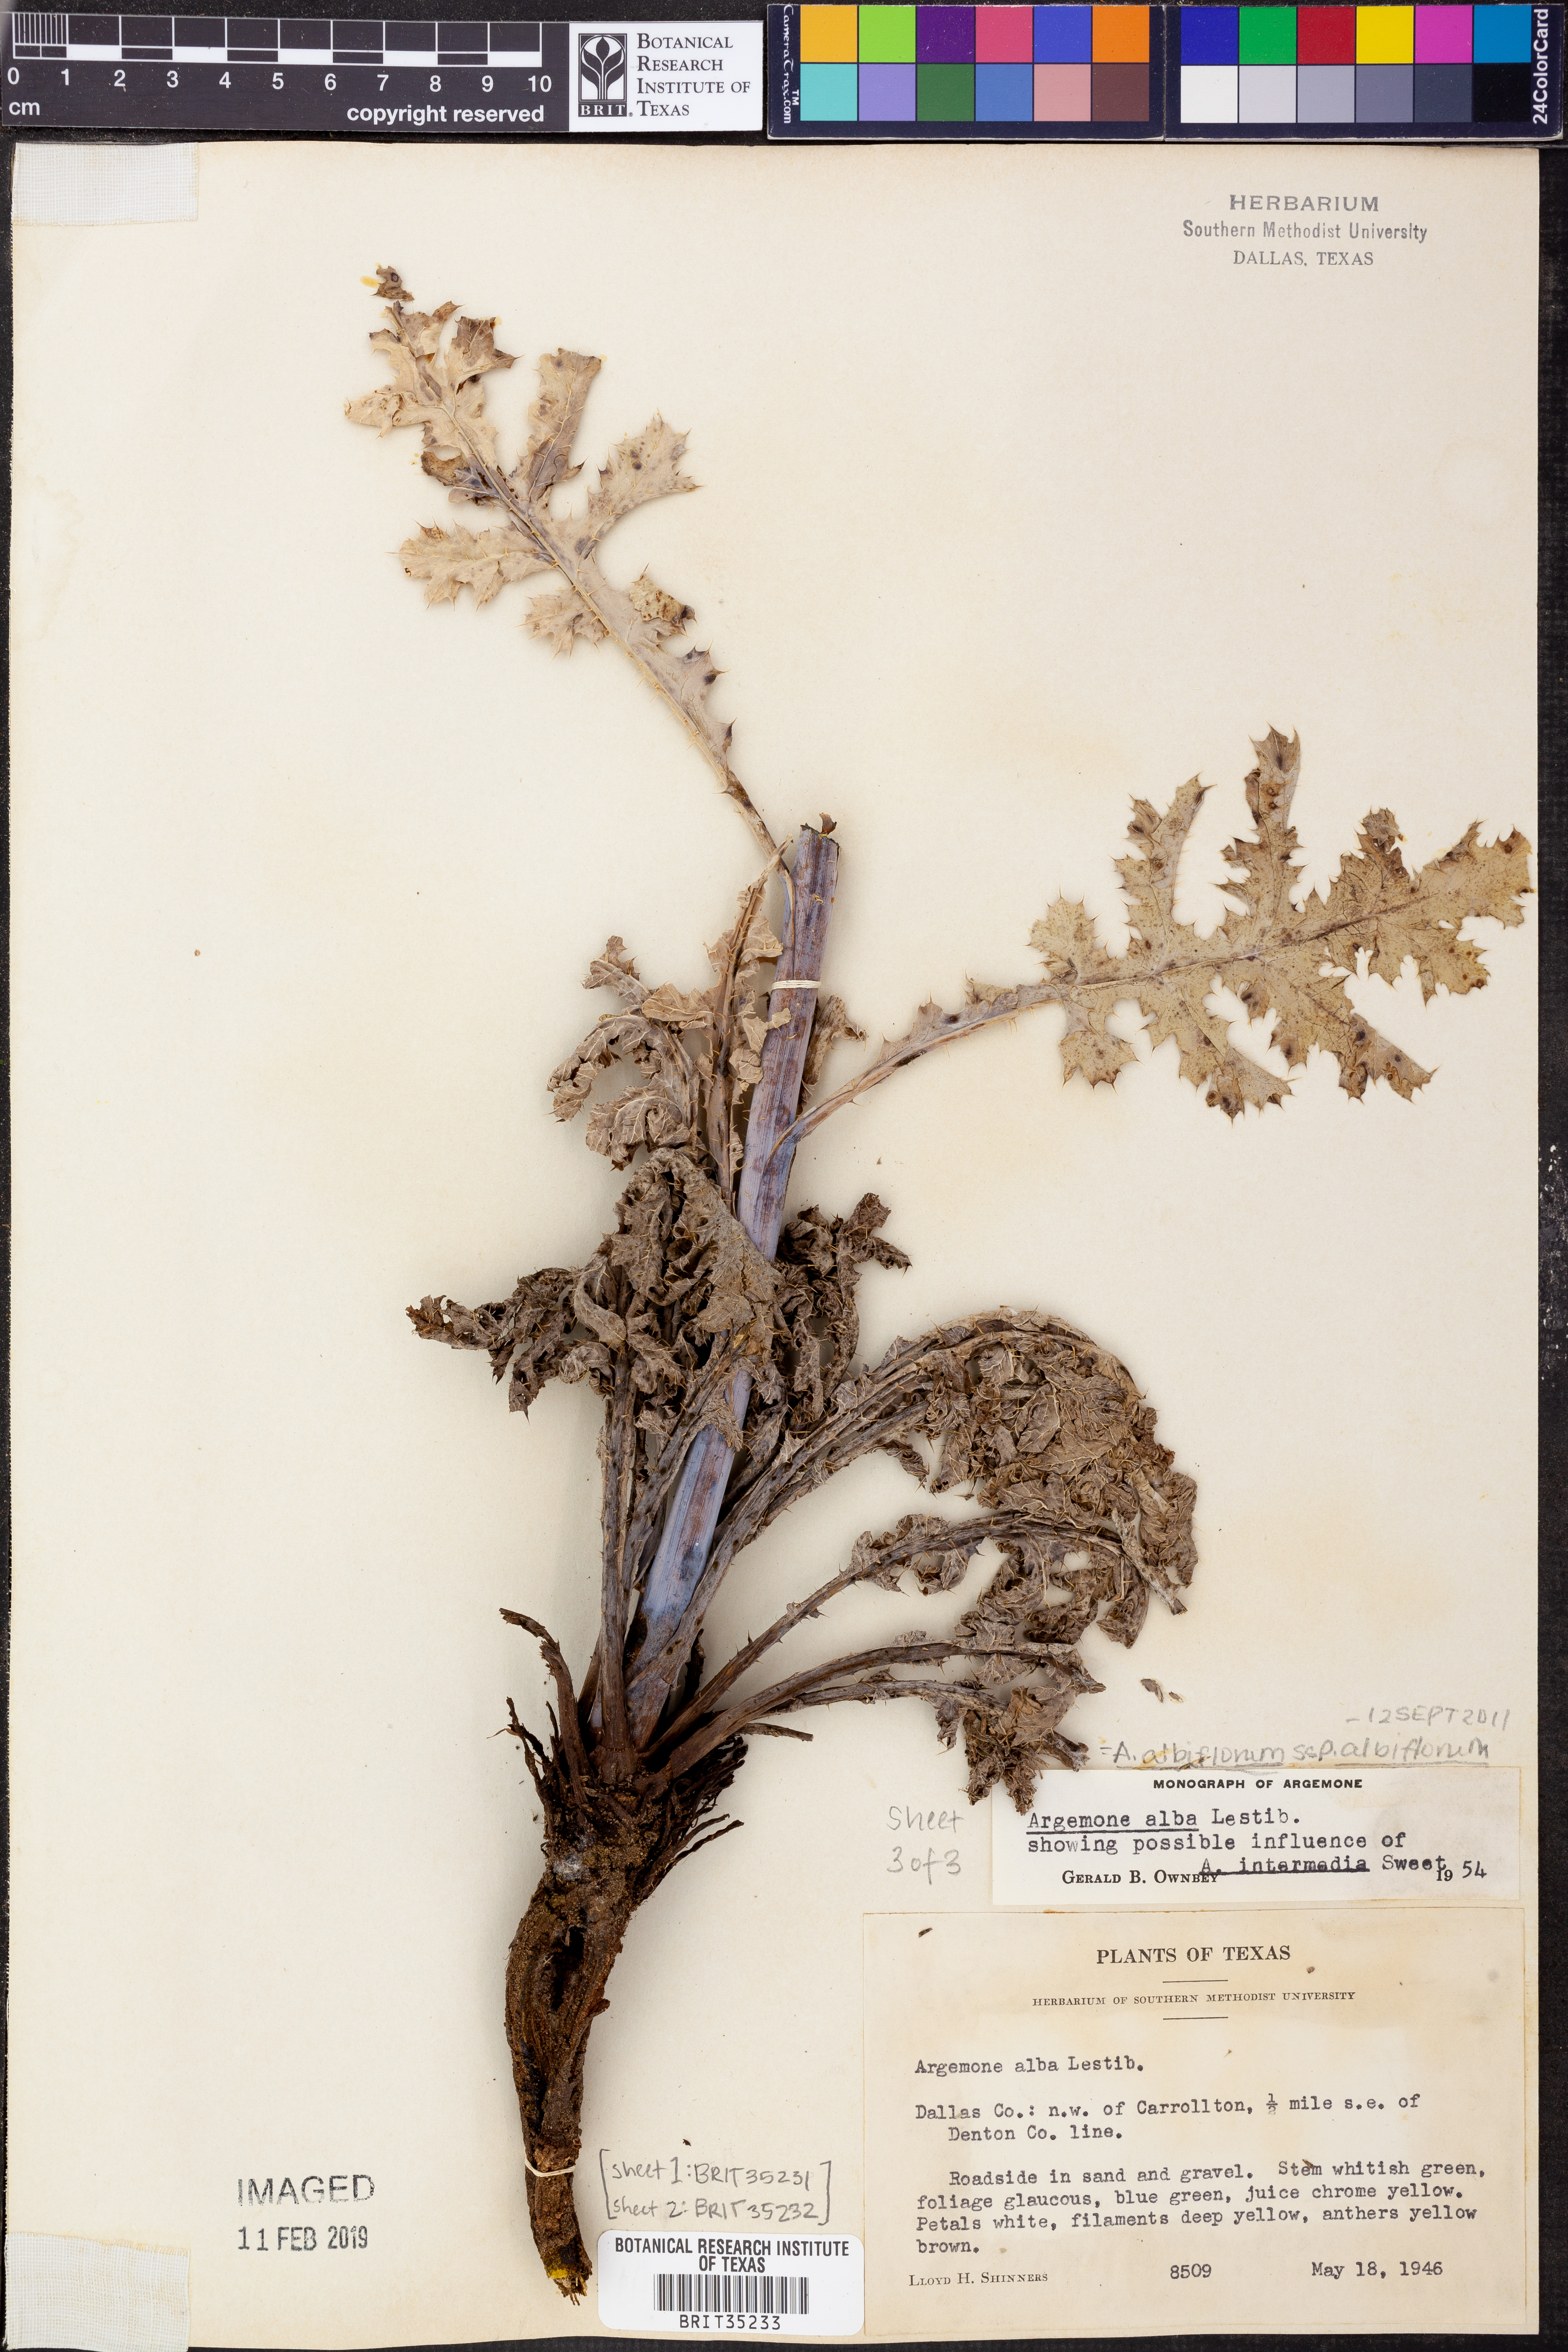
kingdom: Plantae
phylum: Tracheophyta
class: Magnoliopsida
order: Ranunculales
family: Papaveraceae
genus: Argemone
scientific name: Argemone albiflora
